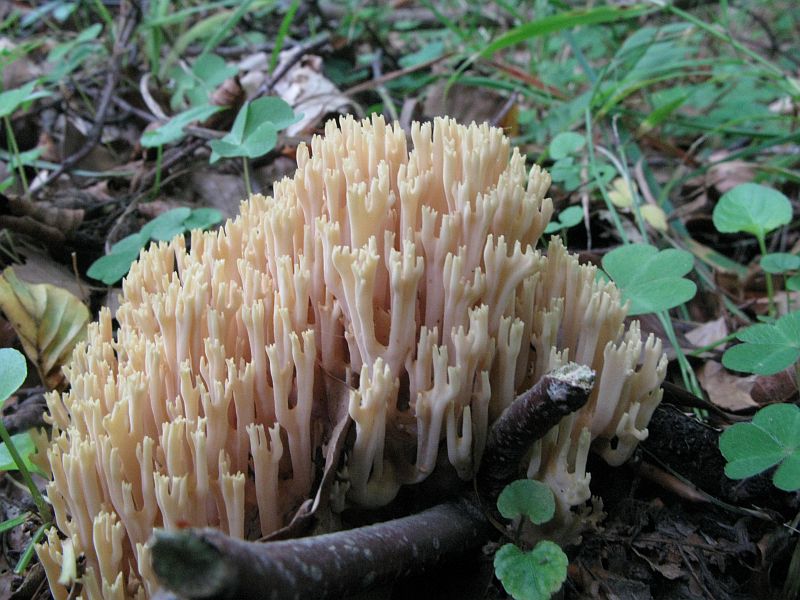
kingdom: Fungi
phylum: Basidiomycota
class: Agaricomycetes
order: Gomphales
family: Gomphaceae
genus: Ramaria
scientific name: Ramaria stricta
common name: rank koralsvamp
